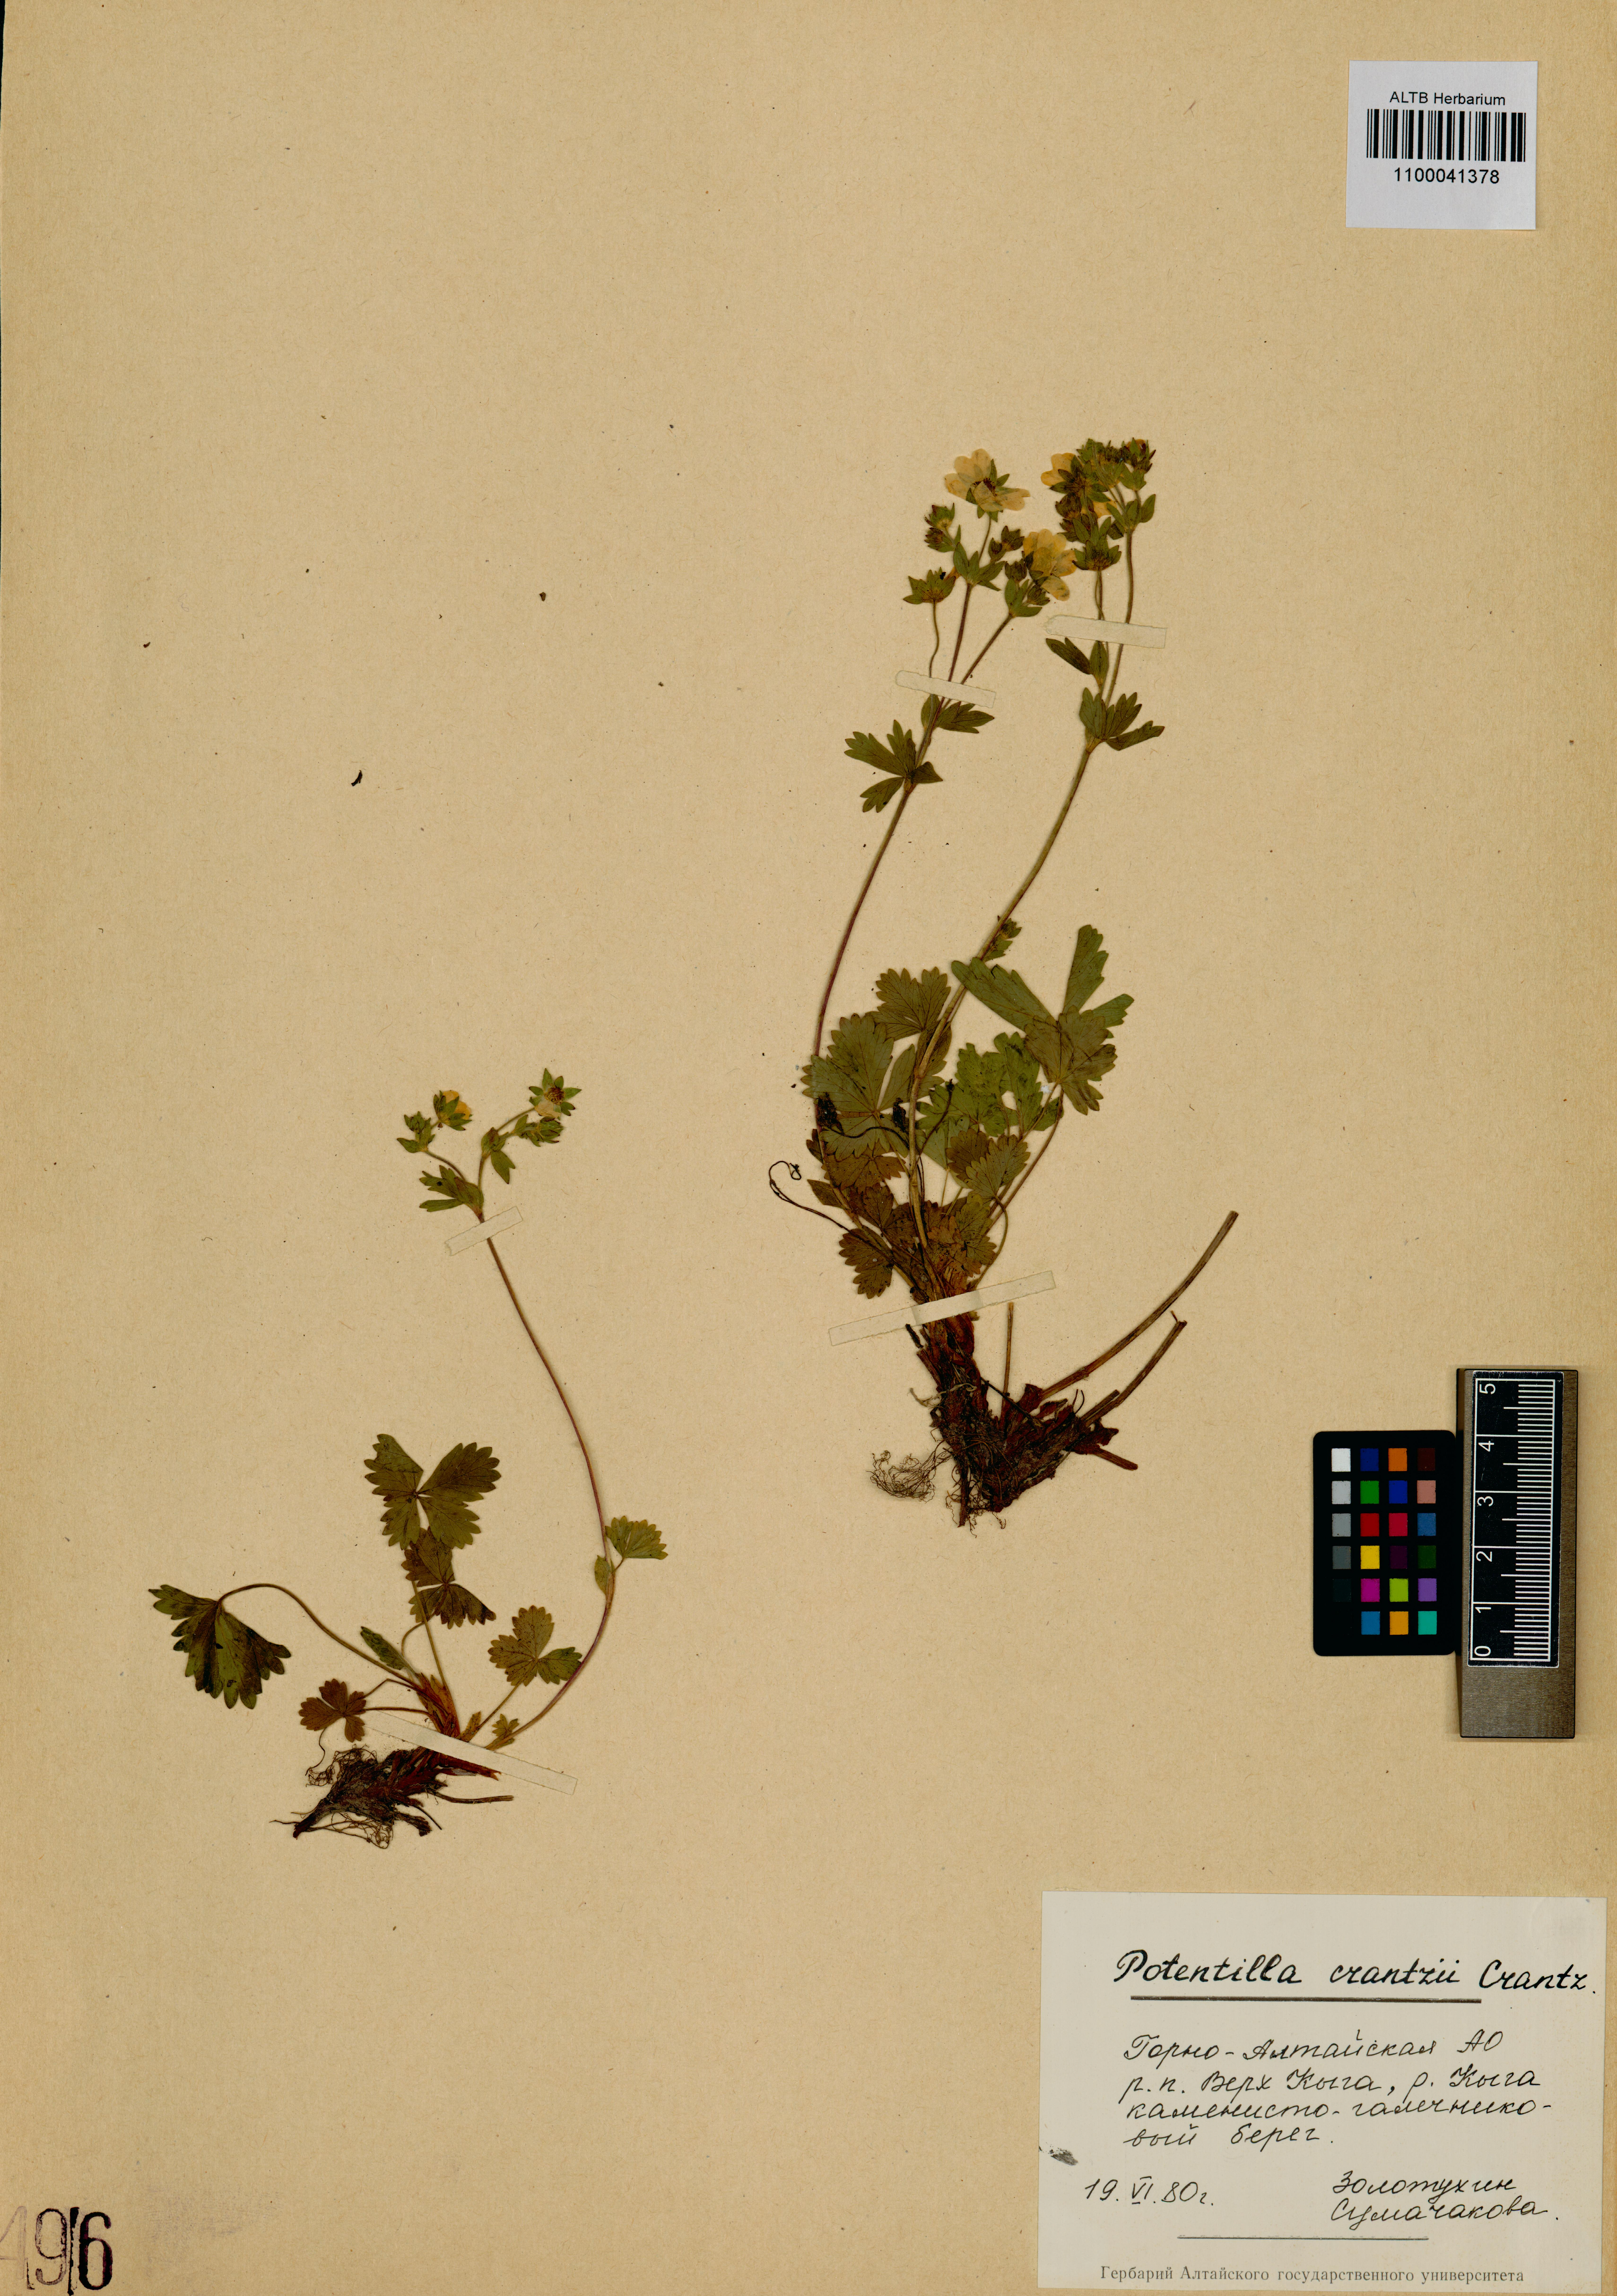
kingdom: Plantae
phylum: Tracheophyta
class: Magnoliopsida
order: Rosales
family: Rosaceae
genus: Potentilla
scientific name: Potentilla crantzii
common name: Alpine cinquefoil
